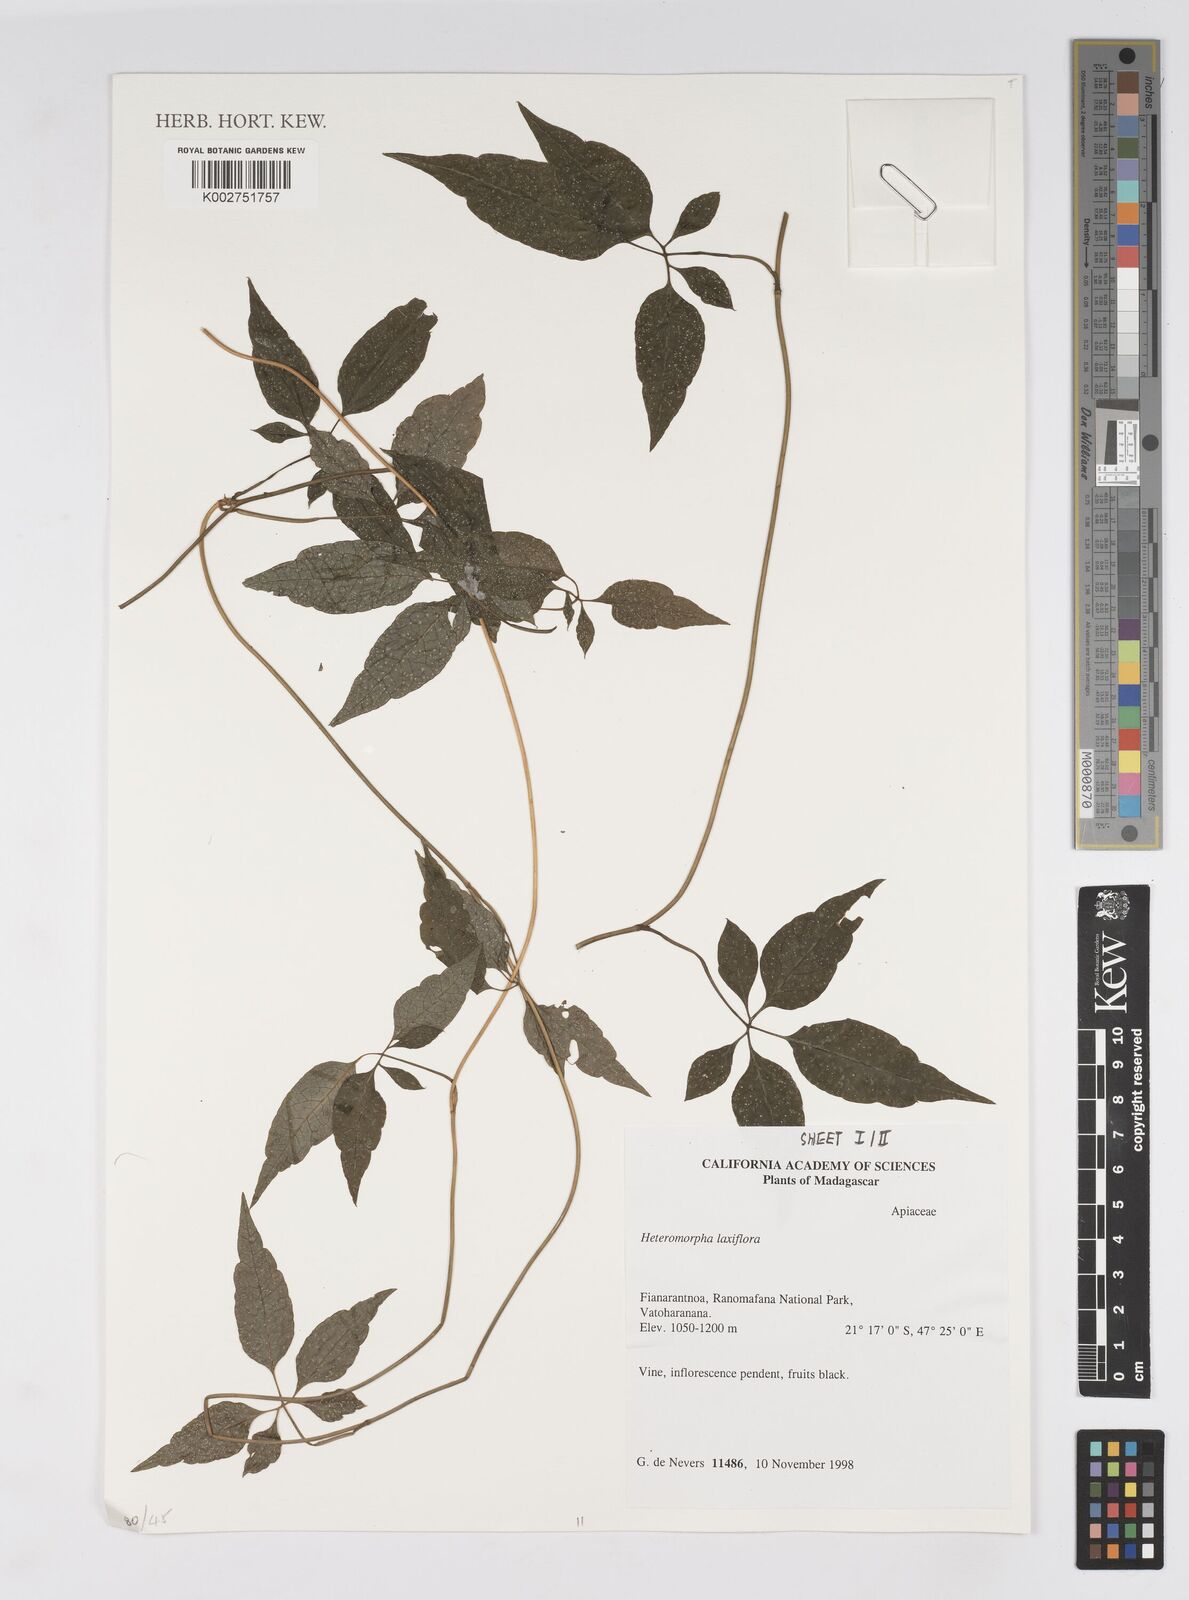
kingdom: Plantae
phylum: Tracheophyta
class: Magnoliopsida
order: Apiales
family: Apiaceae
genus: Pseudocarum
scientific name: Pseudocarum laxiflorum
